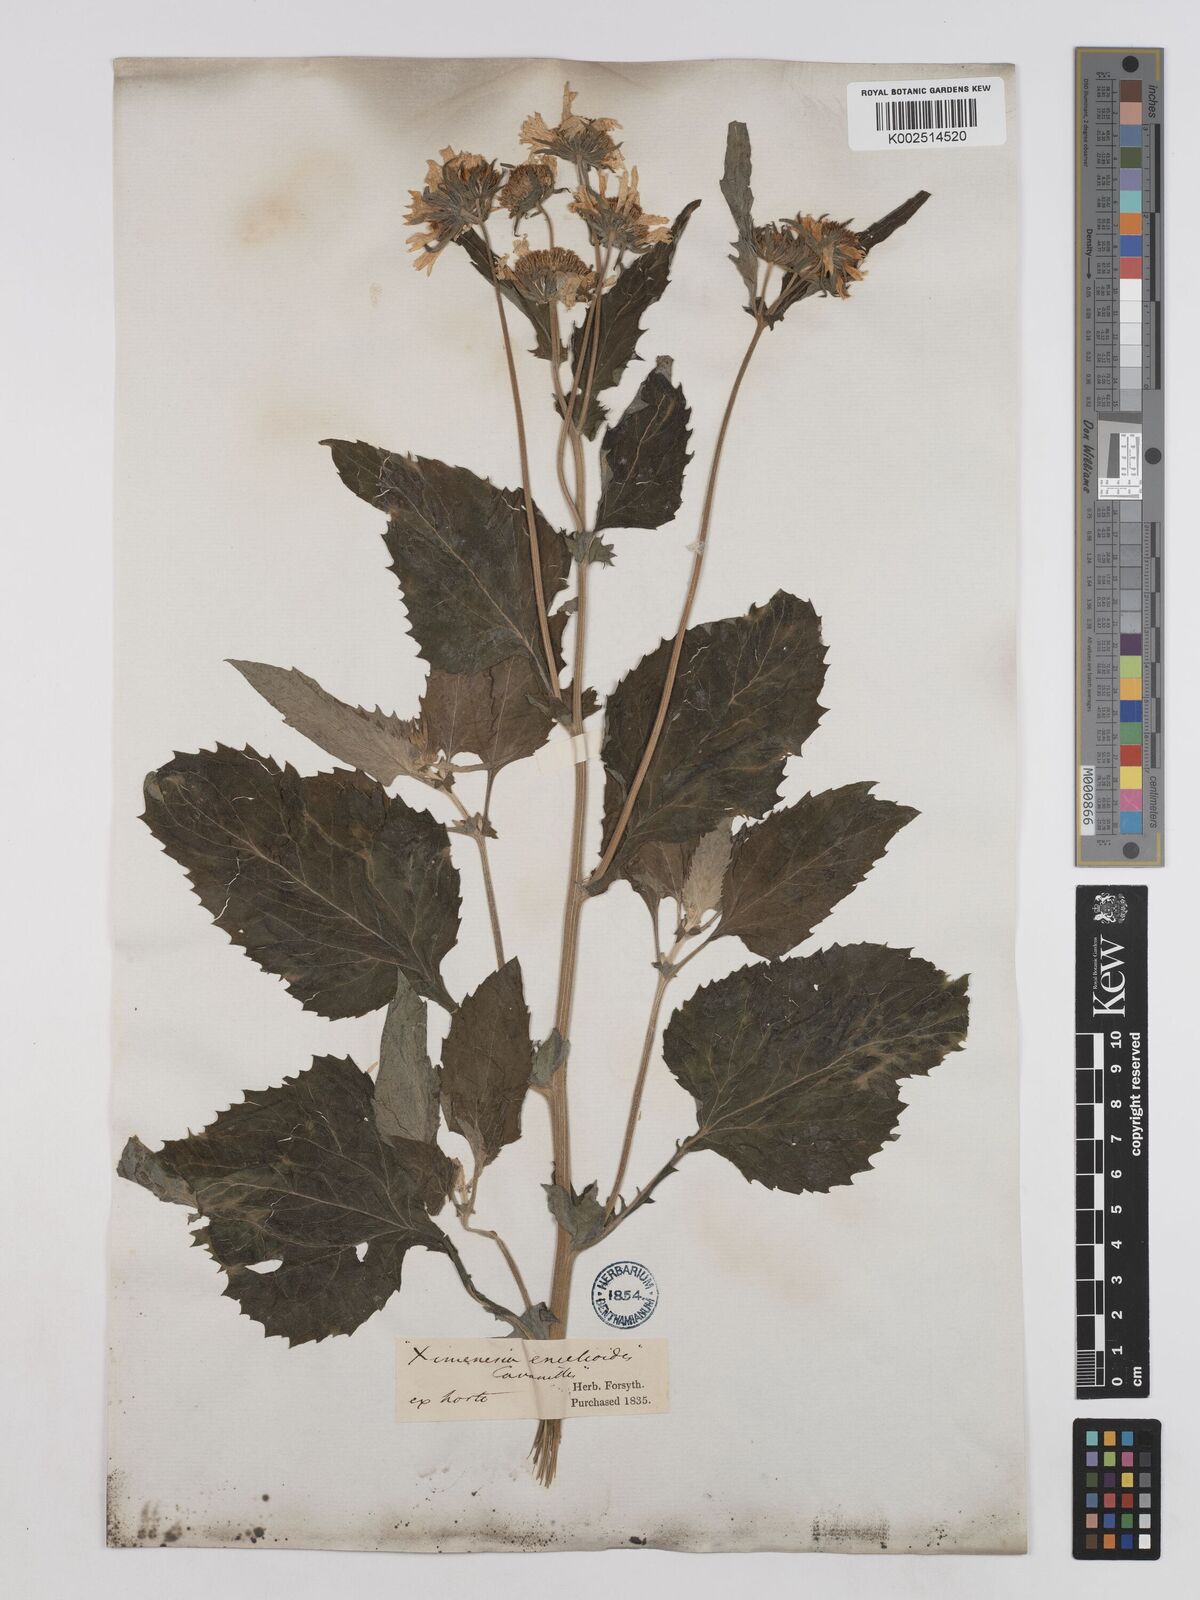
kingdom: Plantae
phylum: Tracheophyta
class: Magnoliopsida
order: Asterales
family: Asteraceae
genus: Verbesina
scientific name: Verbesina encelioides
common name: Golden crownbeard
